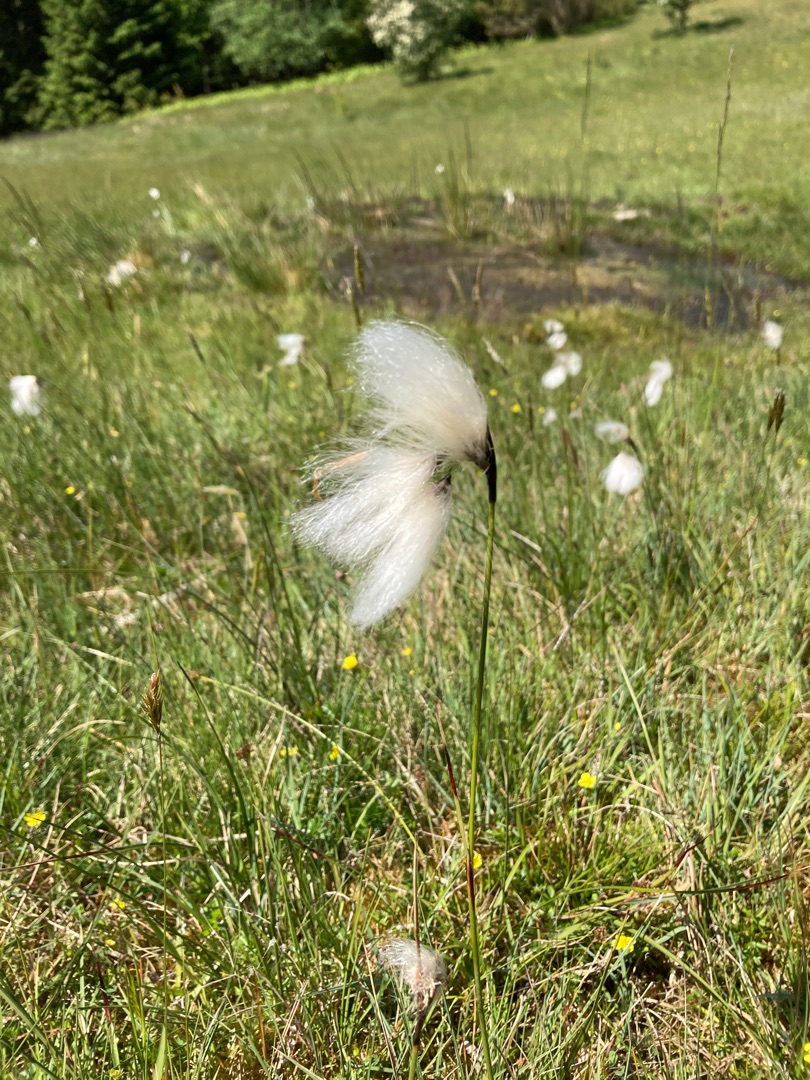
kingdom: Plantae
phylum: Tracheophyta
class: Liliopsida
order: Poales
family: Cyperaceae
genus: Eriophorum
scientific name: Eriophorum angustifolium
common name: Smalbladet kæruld
